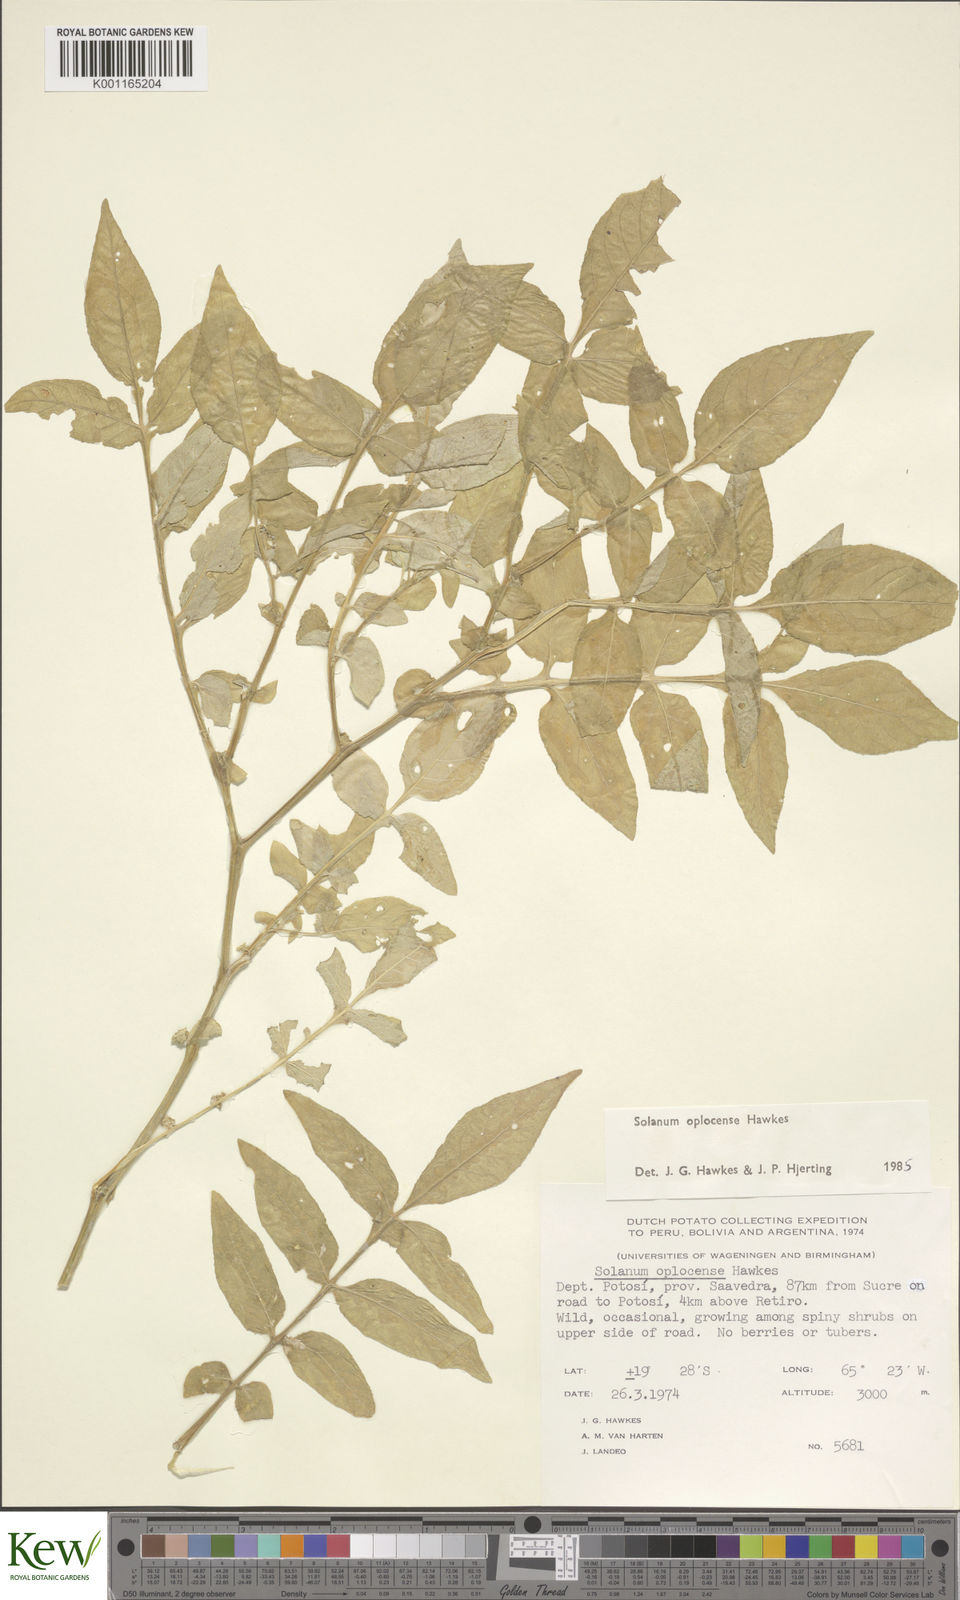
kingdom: Plantae
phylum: Tracheophyta
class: Magnoliopsida
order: Solanales
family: Solanaceae
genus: Solanum
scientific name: Solanum brevicaule
